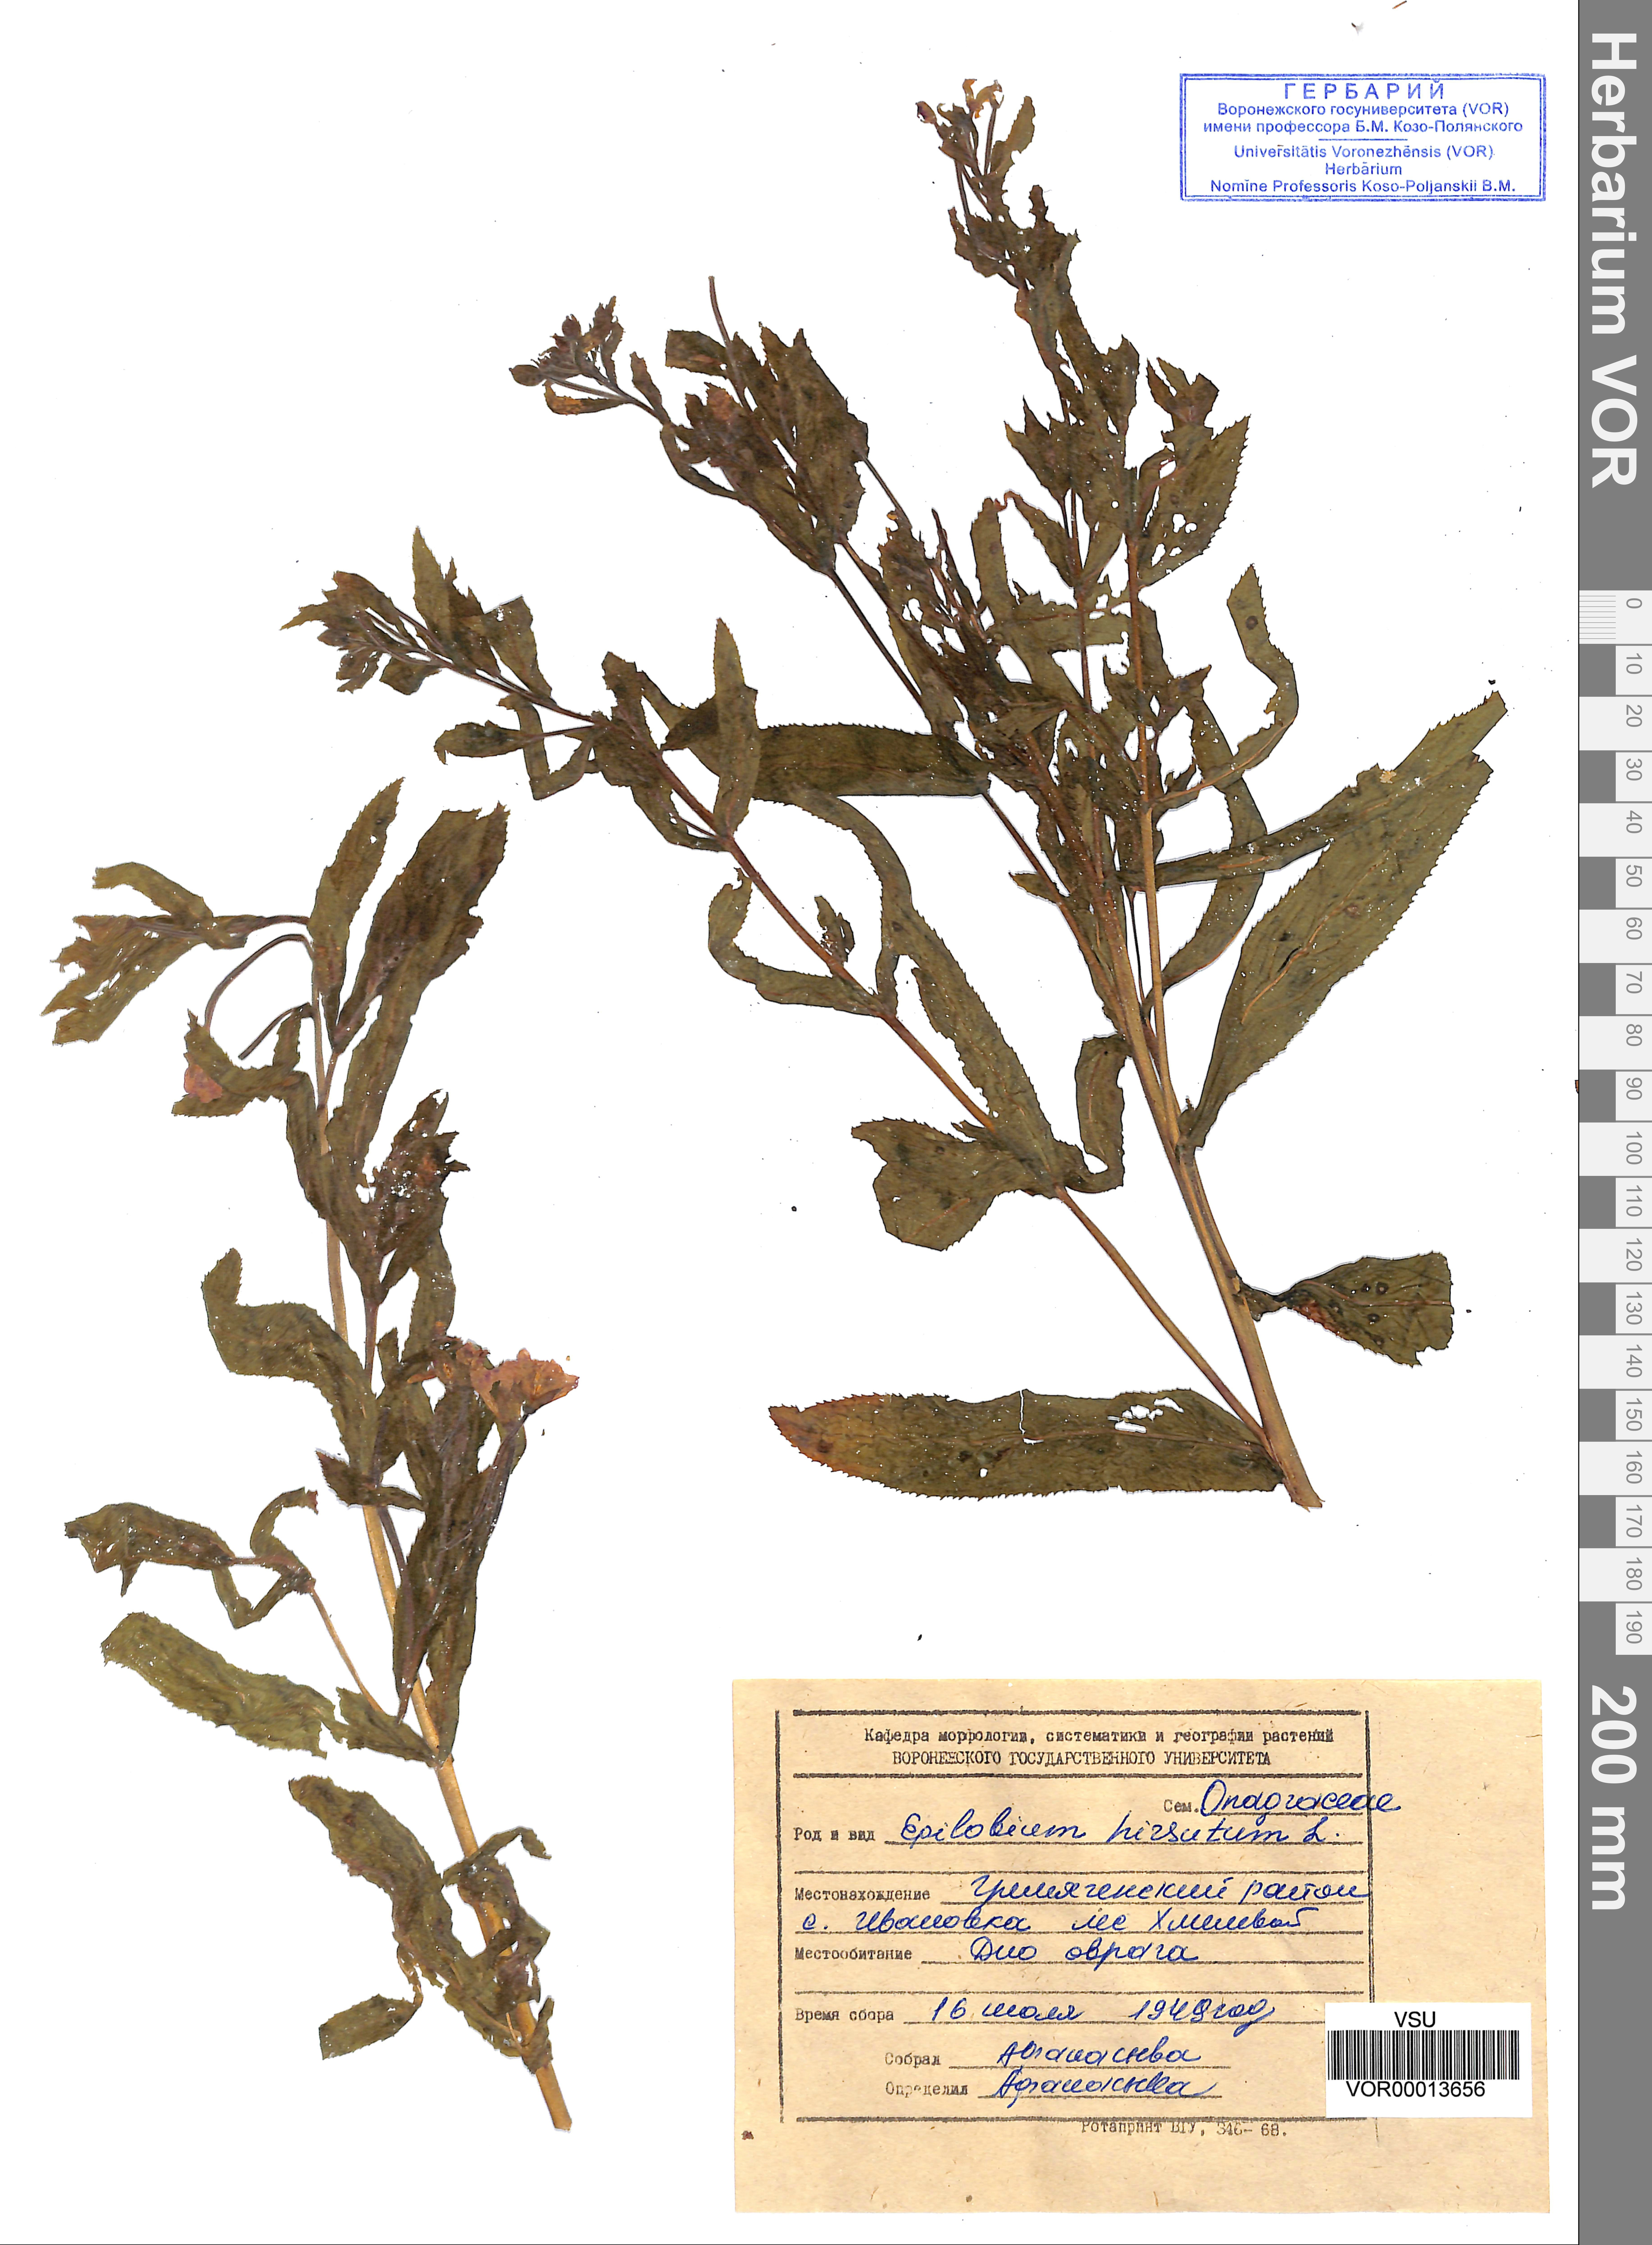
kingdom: Plantae
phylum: Tracheophyta
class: Magnoliopsida
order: Myrtales
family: Onagraceae
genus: Epilobium
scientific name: Epilobium hirsutum
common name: Great willowherb
